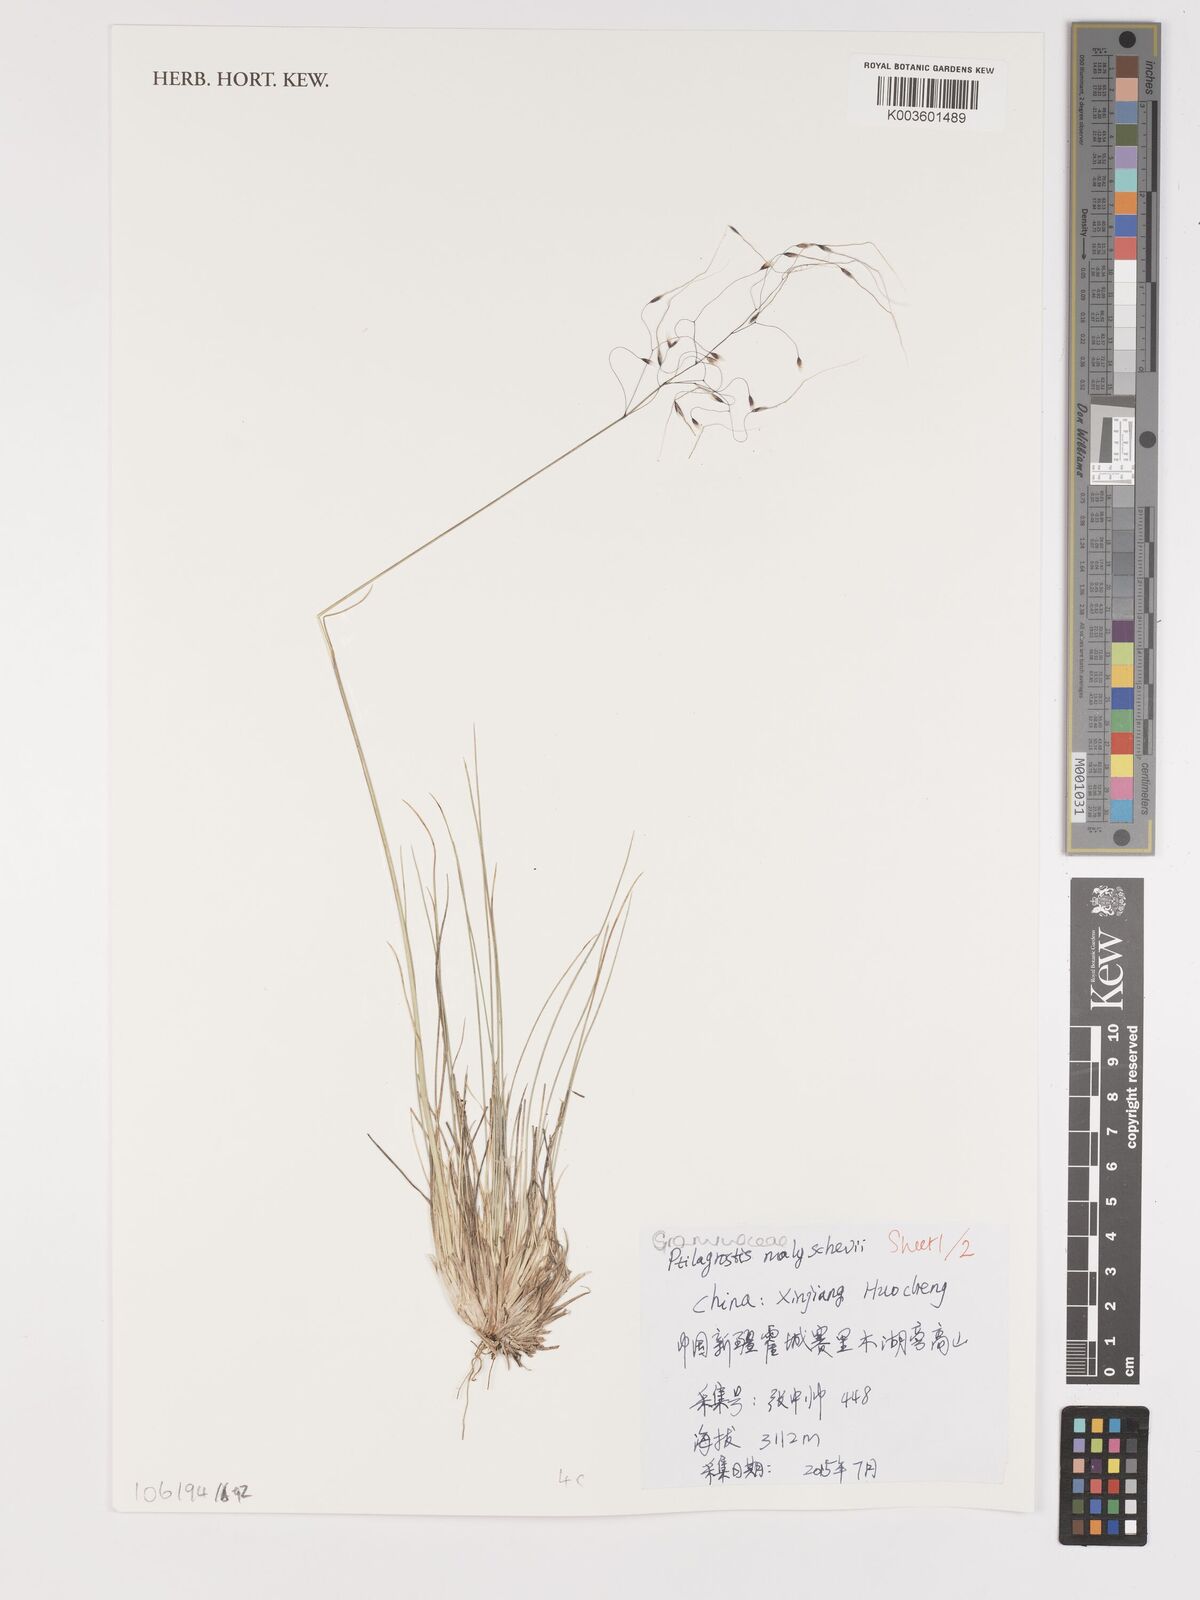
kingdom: Plantae
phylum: Tracheophyta
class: Liliopsida
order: Poales
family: Poaceae
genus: Stipa
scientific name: Stipa
